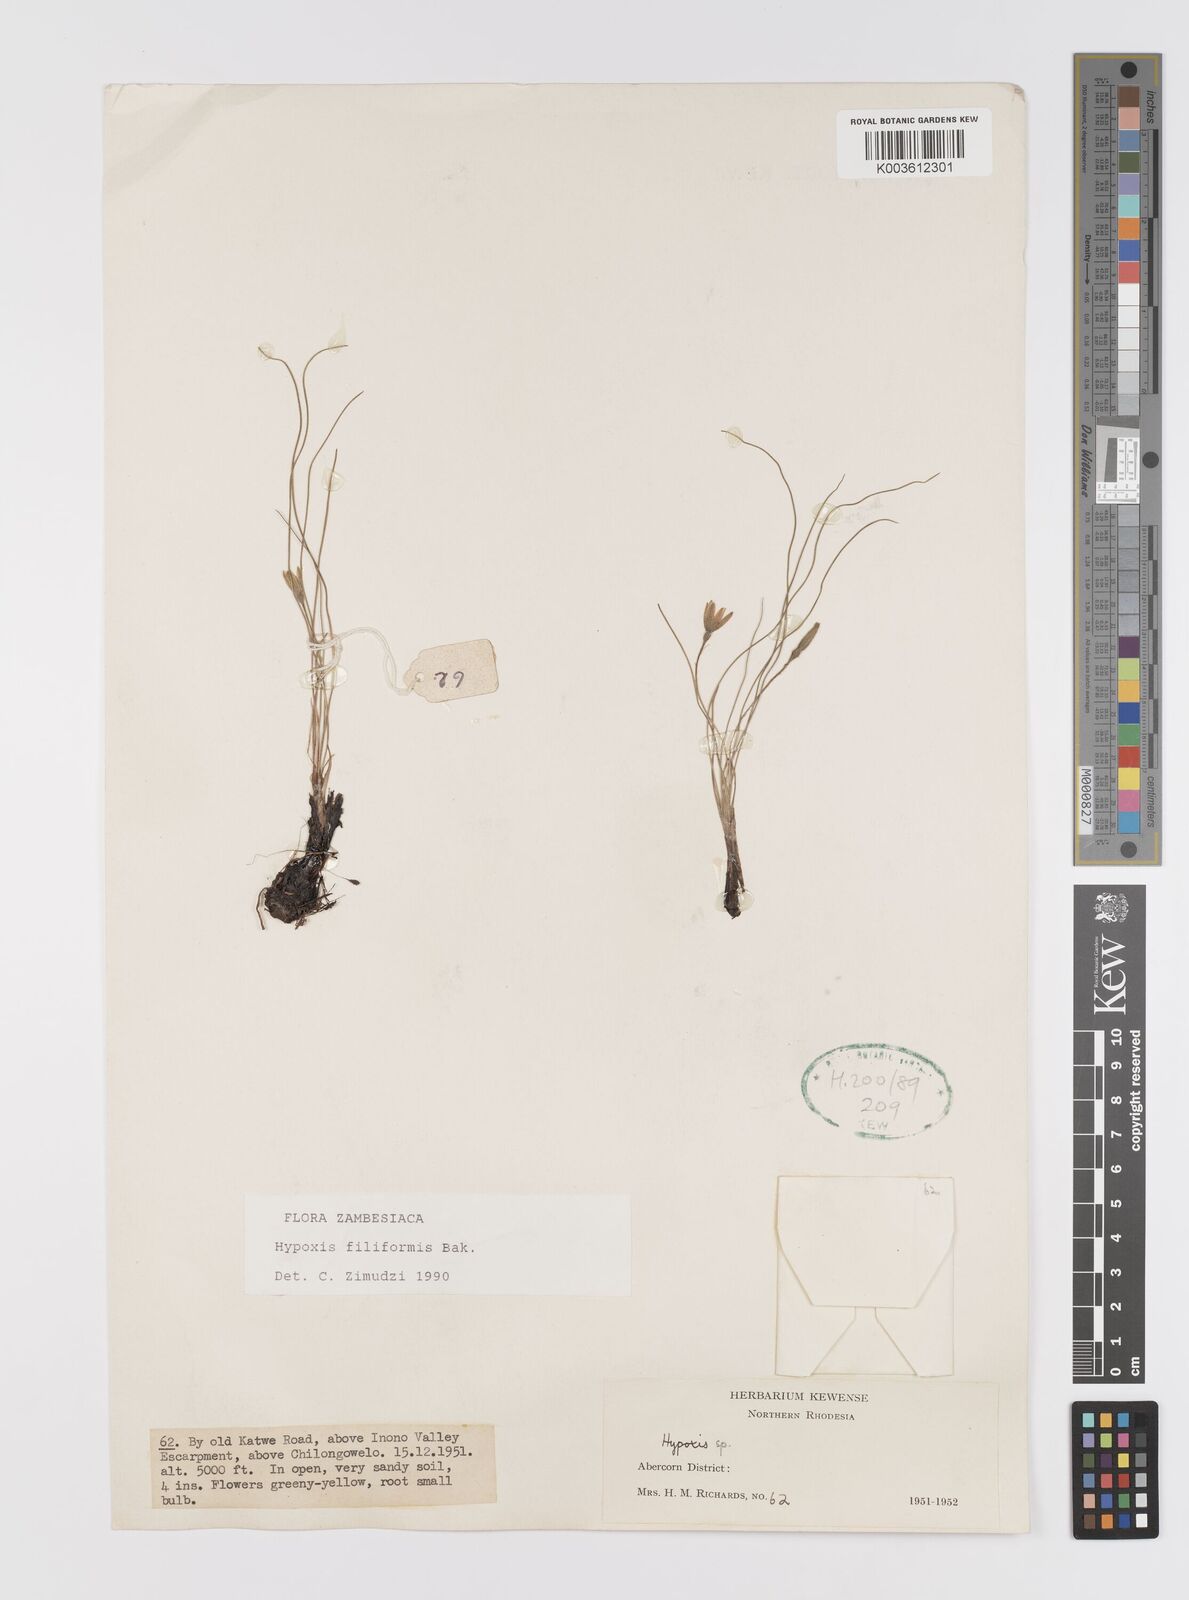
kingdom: Plantae
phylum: Tracheophyta
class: Liliopsida
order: Asparagales
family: Hypoxidaceae
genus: Hypoxis
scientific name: Hypoxis filiformis
